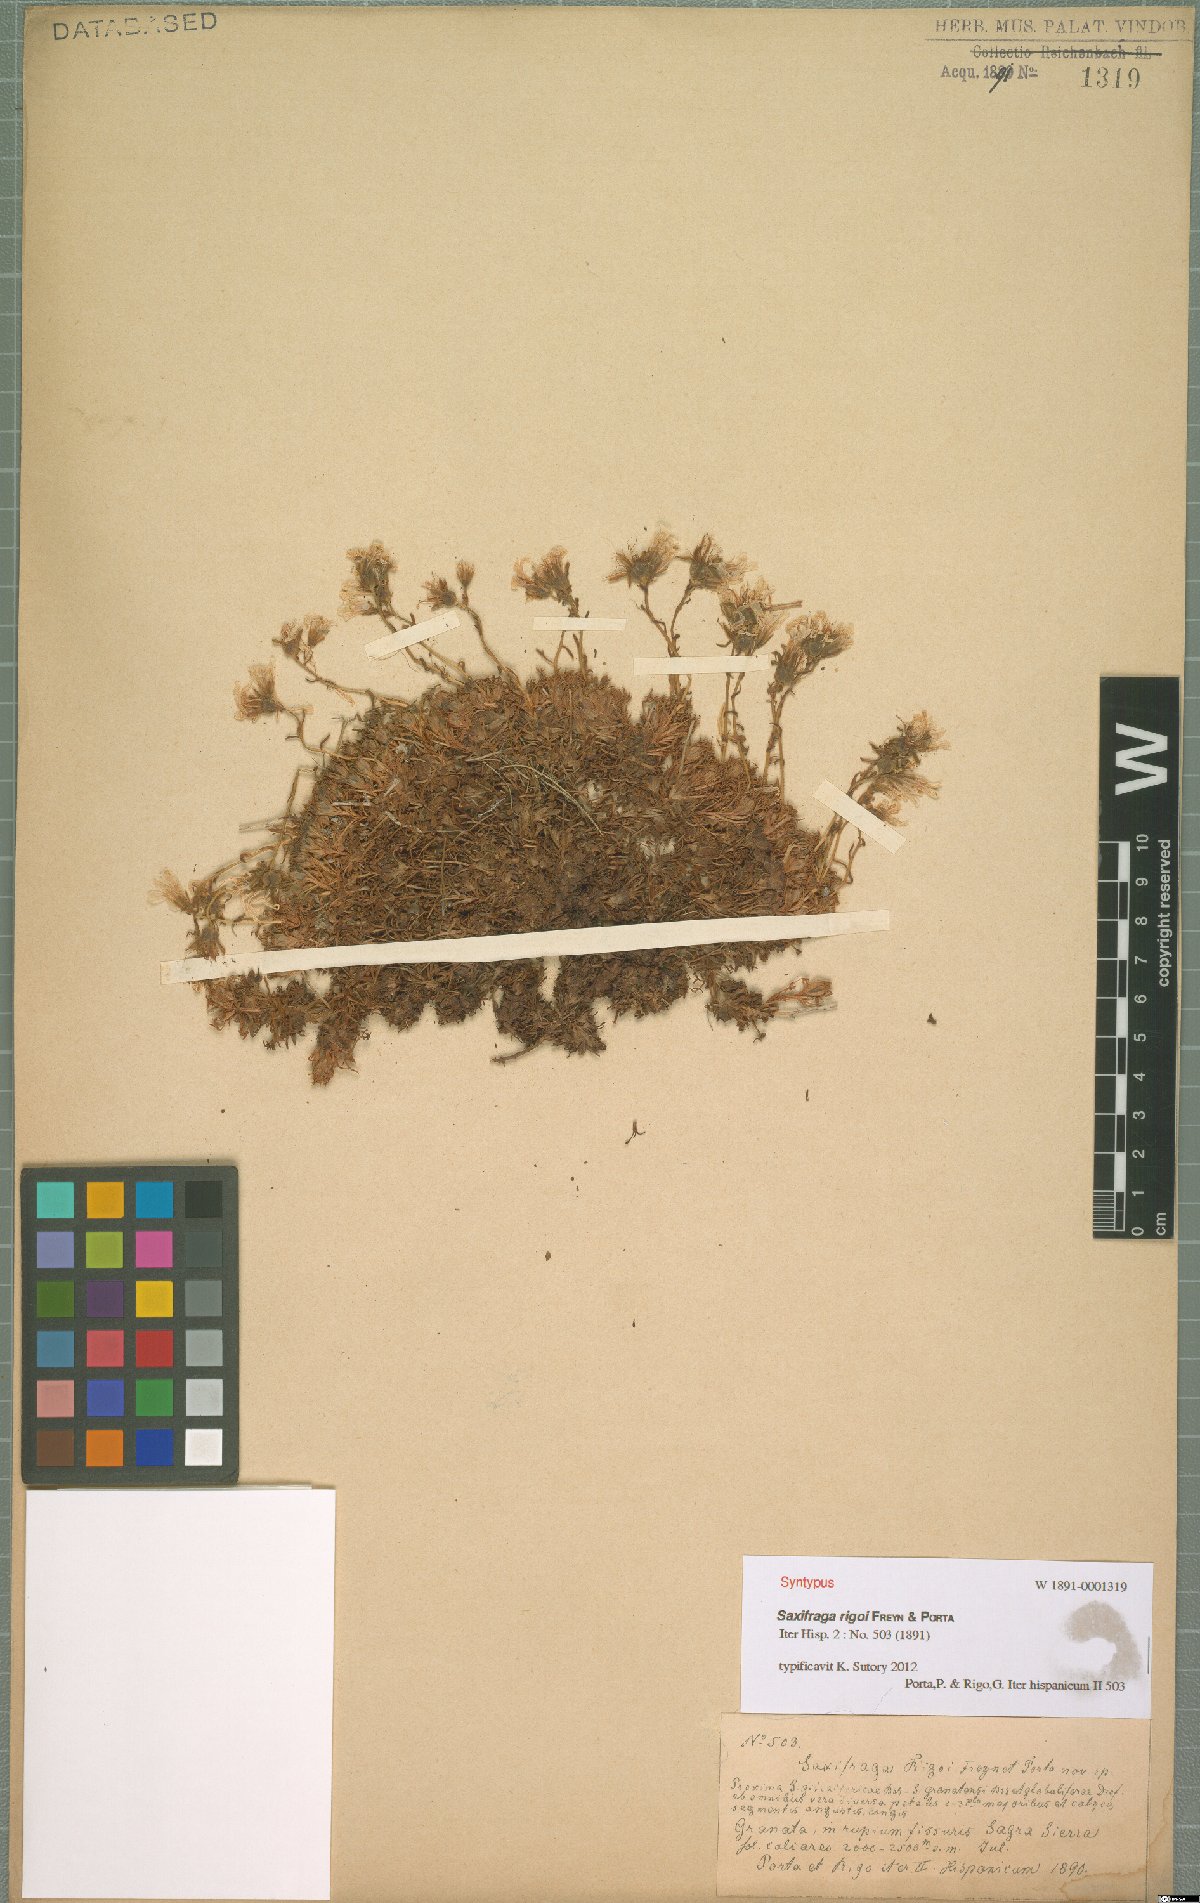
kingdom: Plantae
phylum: Tracheophyta
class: Magnoliopsida
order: Saxifragales
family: Saxifragaceae
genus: Saxifraga
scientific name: Saxifraga rigoi
